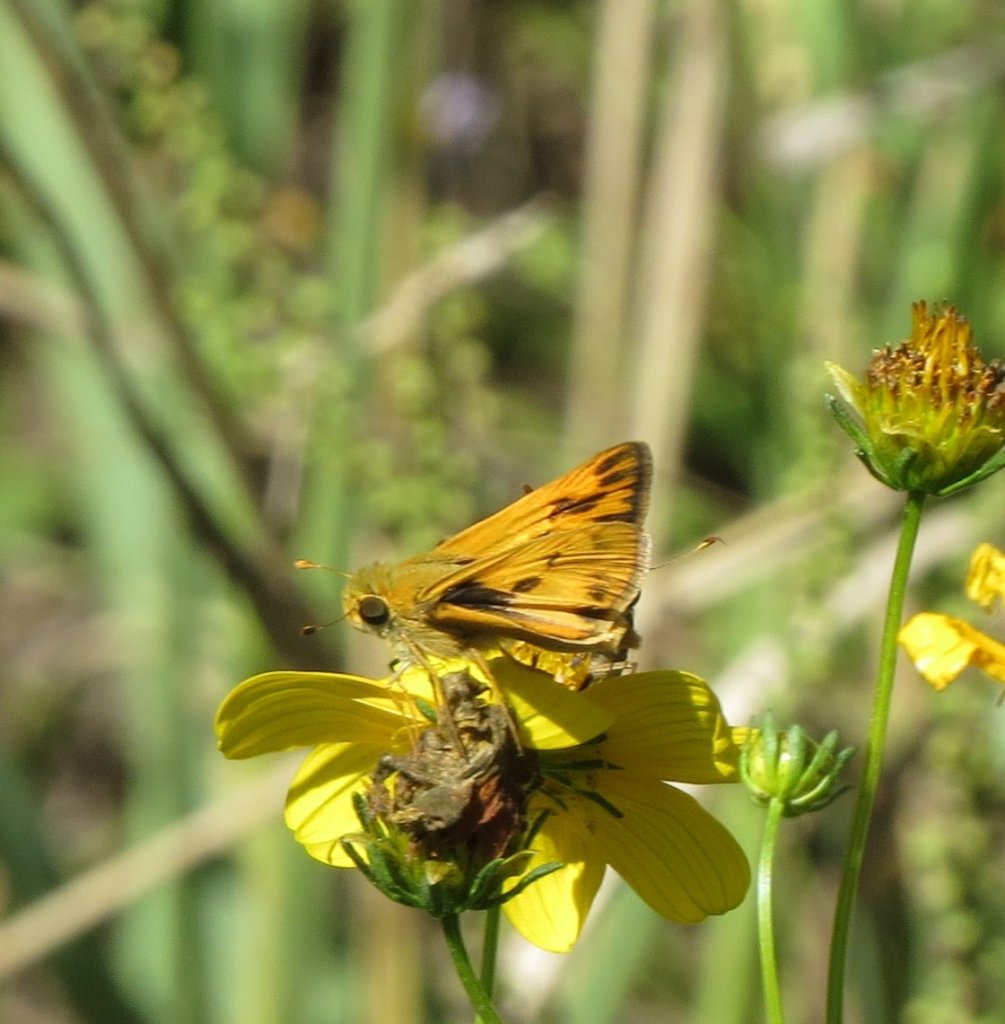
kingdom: Animalia
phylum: Arthropoda
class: Insecta
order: Lepidoptera
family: Hesperiidae
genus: Hylephila
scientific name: Hylephila phyleus
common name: Fiery Skipper
